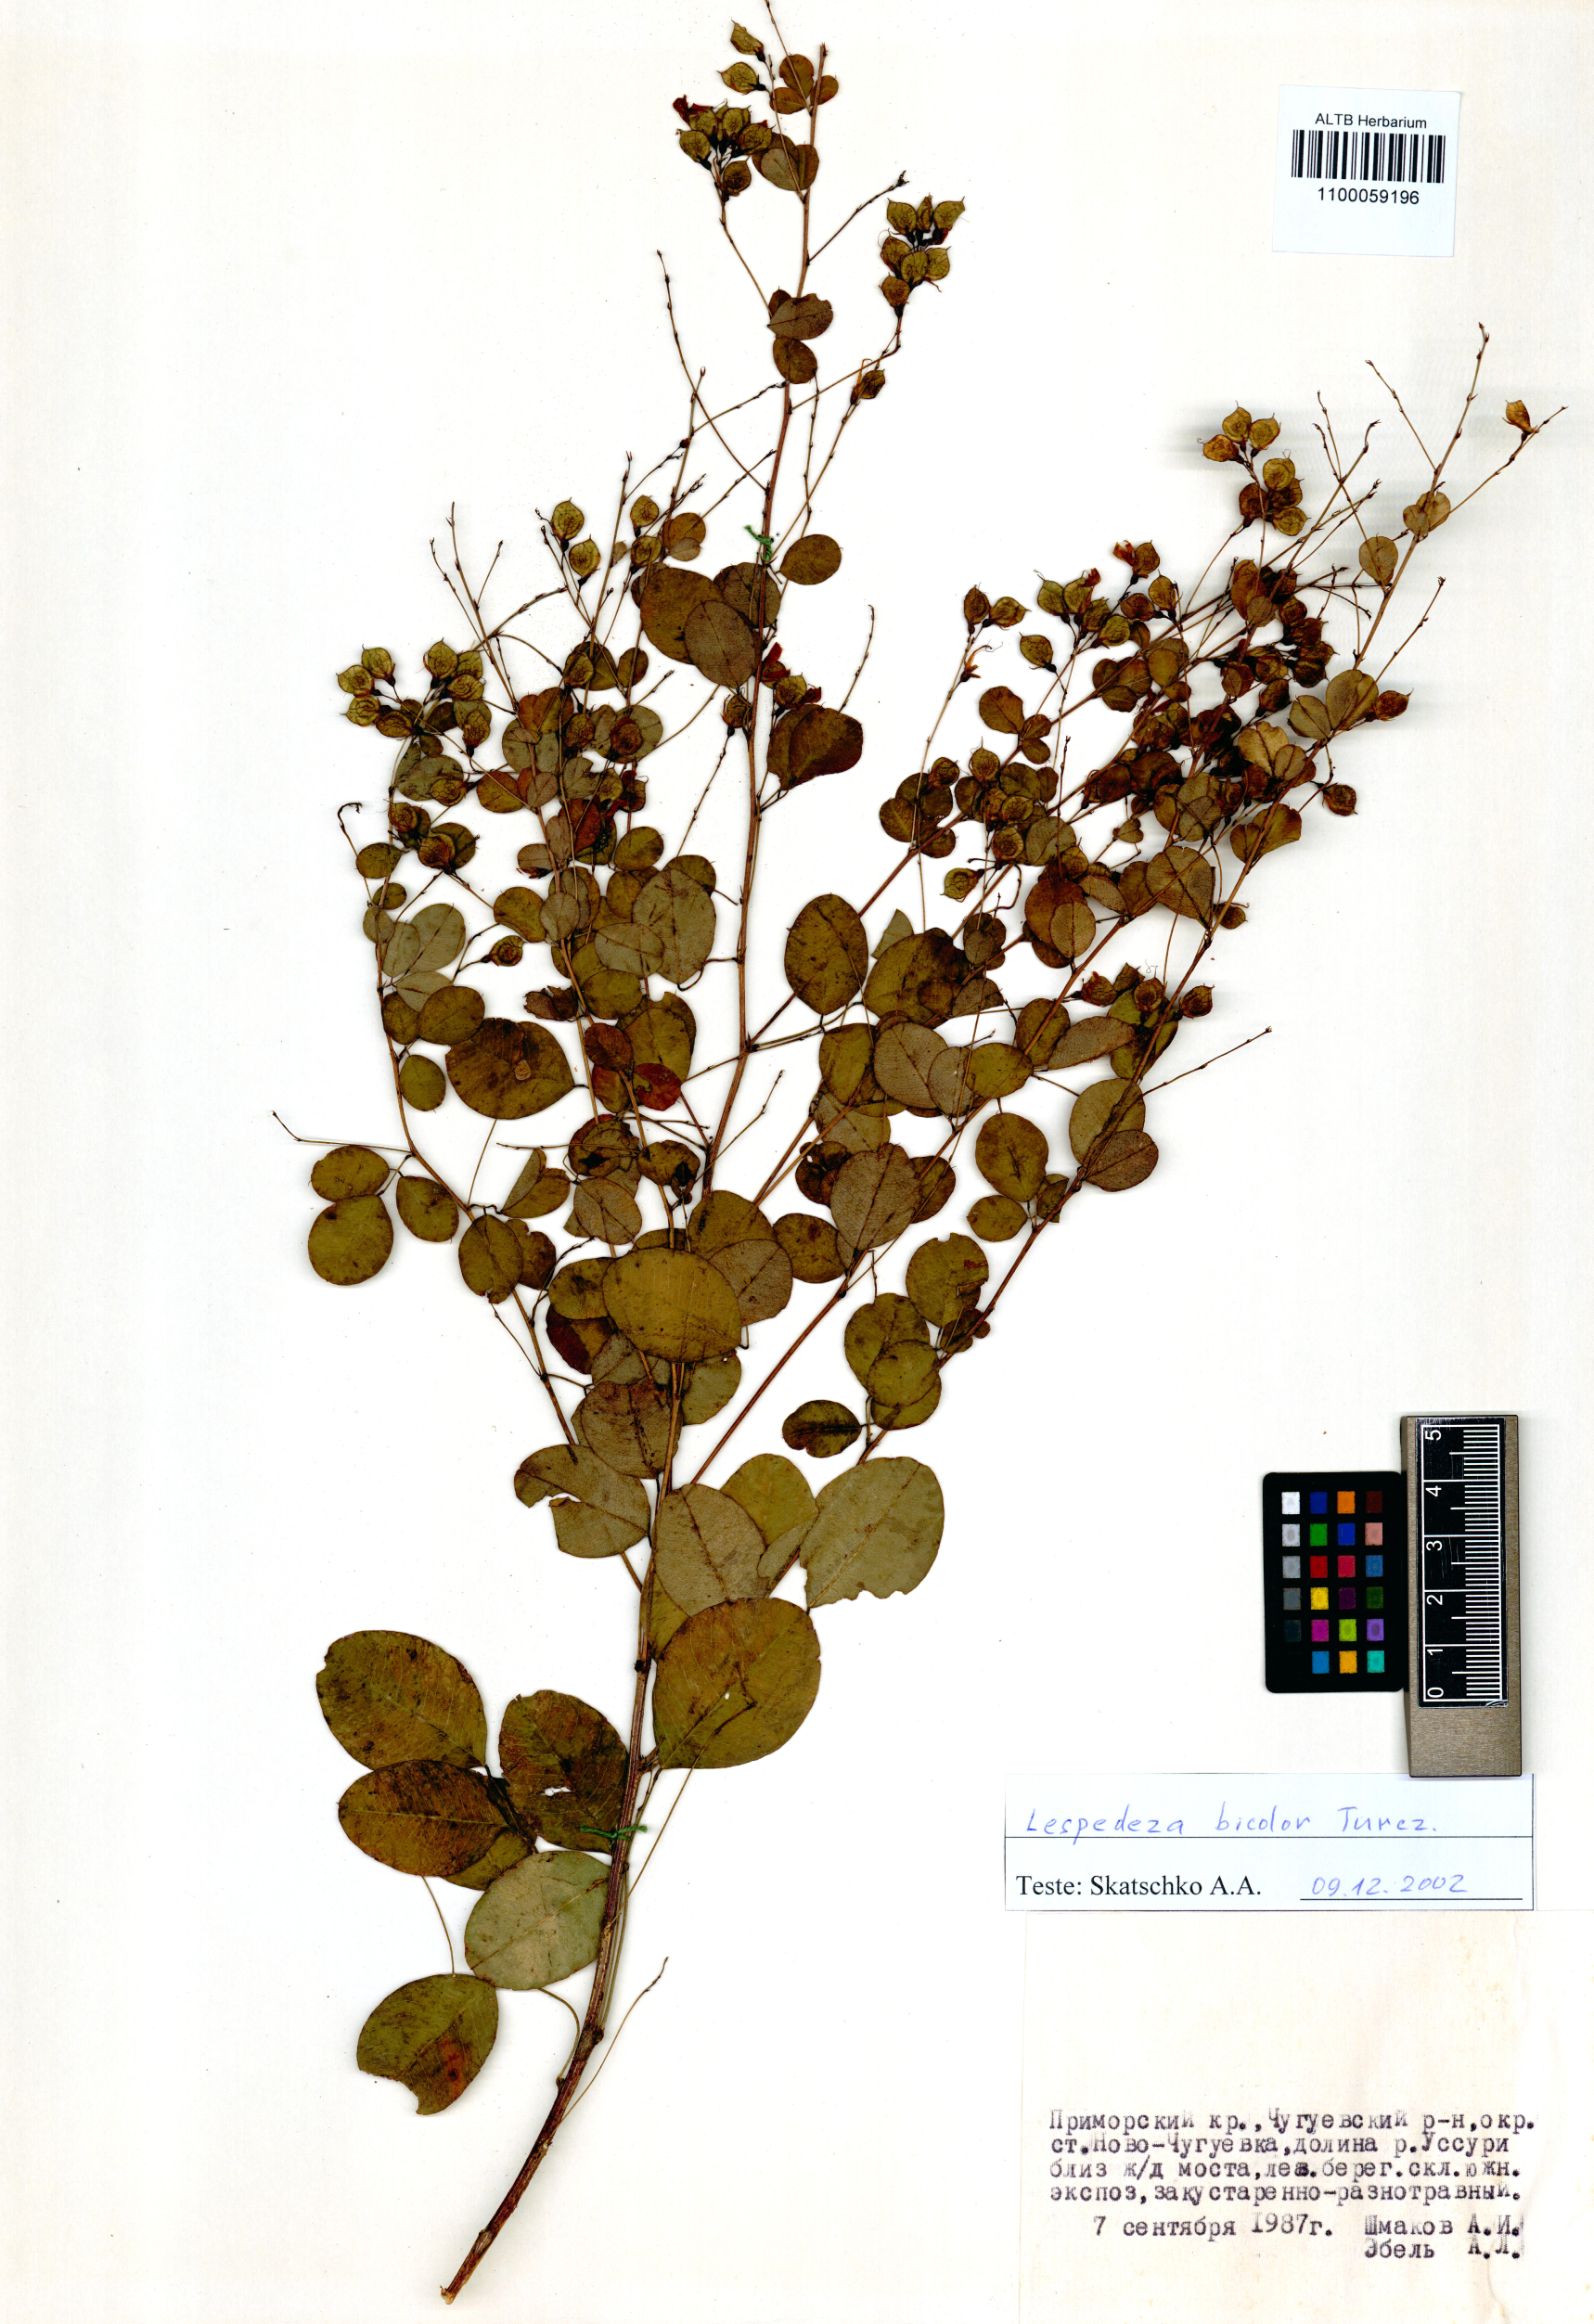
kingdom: Plantae
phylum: Tracheophyta
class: Magnoliopsida
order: Fabales
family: Fabaceae
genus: Lespedeza
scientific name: Lespedeza bicolor
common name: Shrub lespedeza
